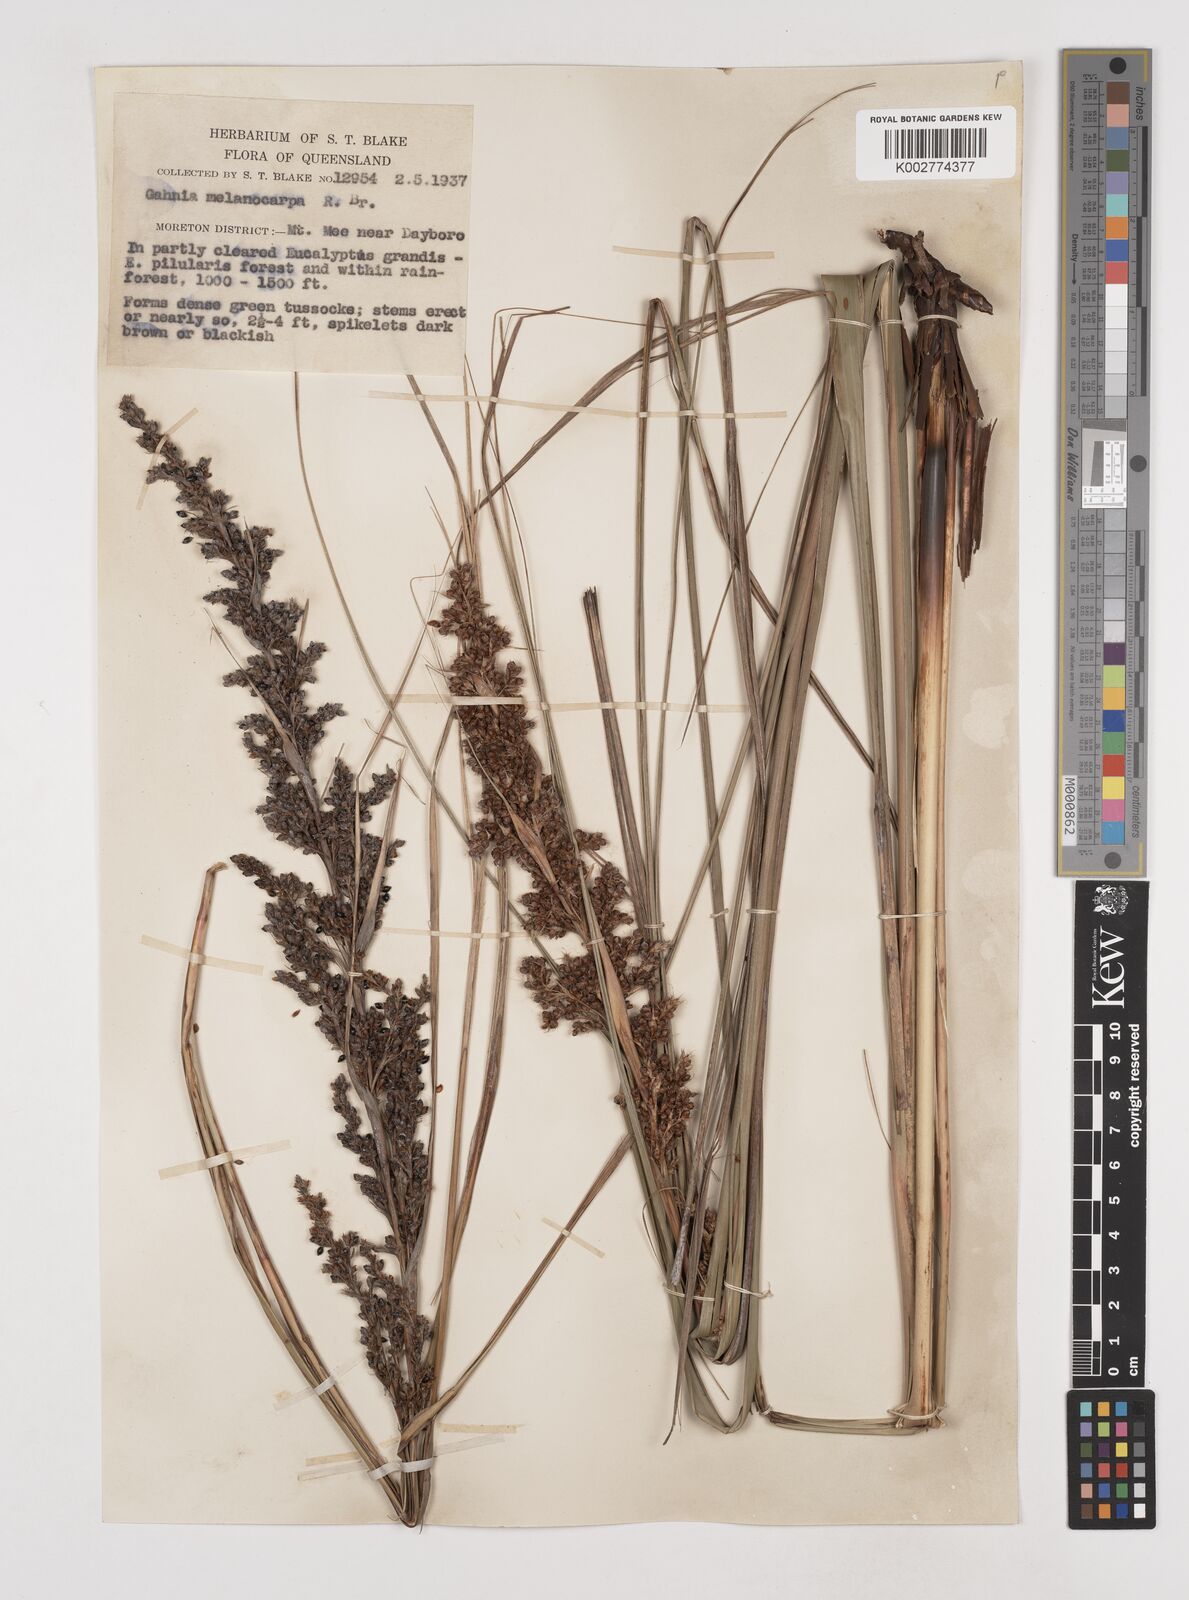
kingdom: Plantae
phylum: Tracheophyta
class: Liliopsida
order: Poales
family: Cyperaceae
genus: Gahnia
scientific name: Gahnia melanocarpa
